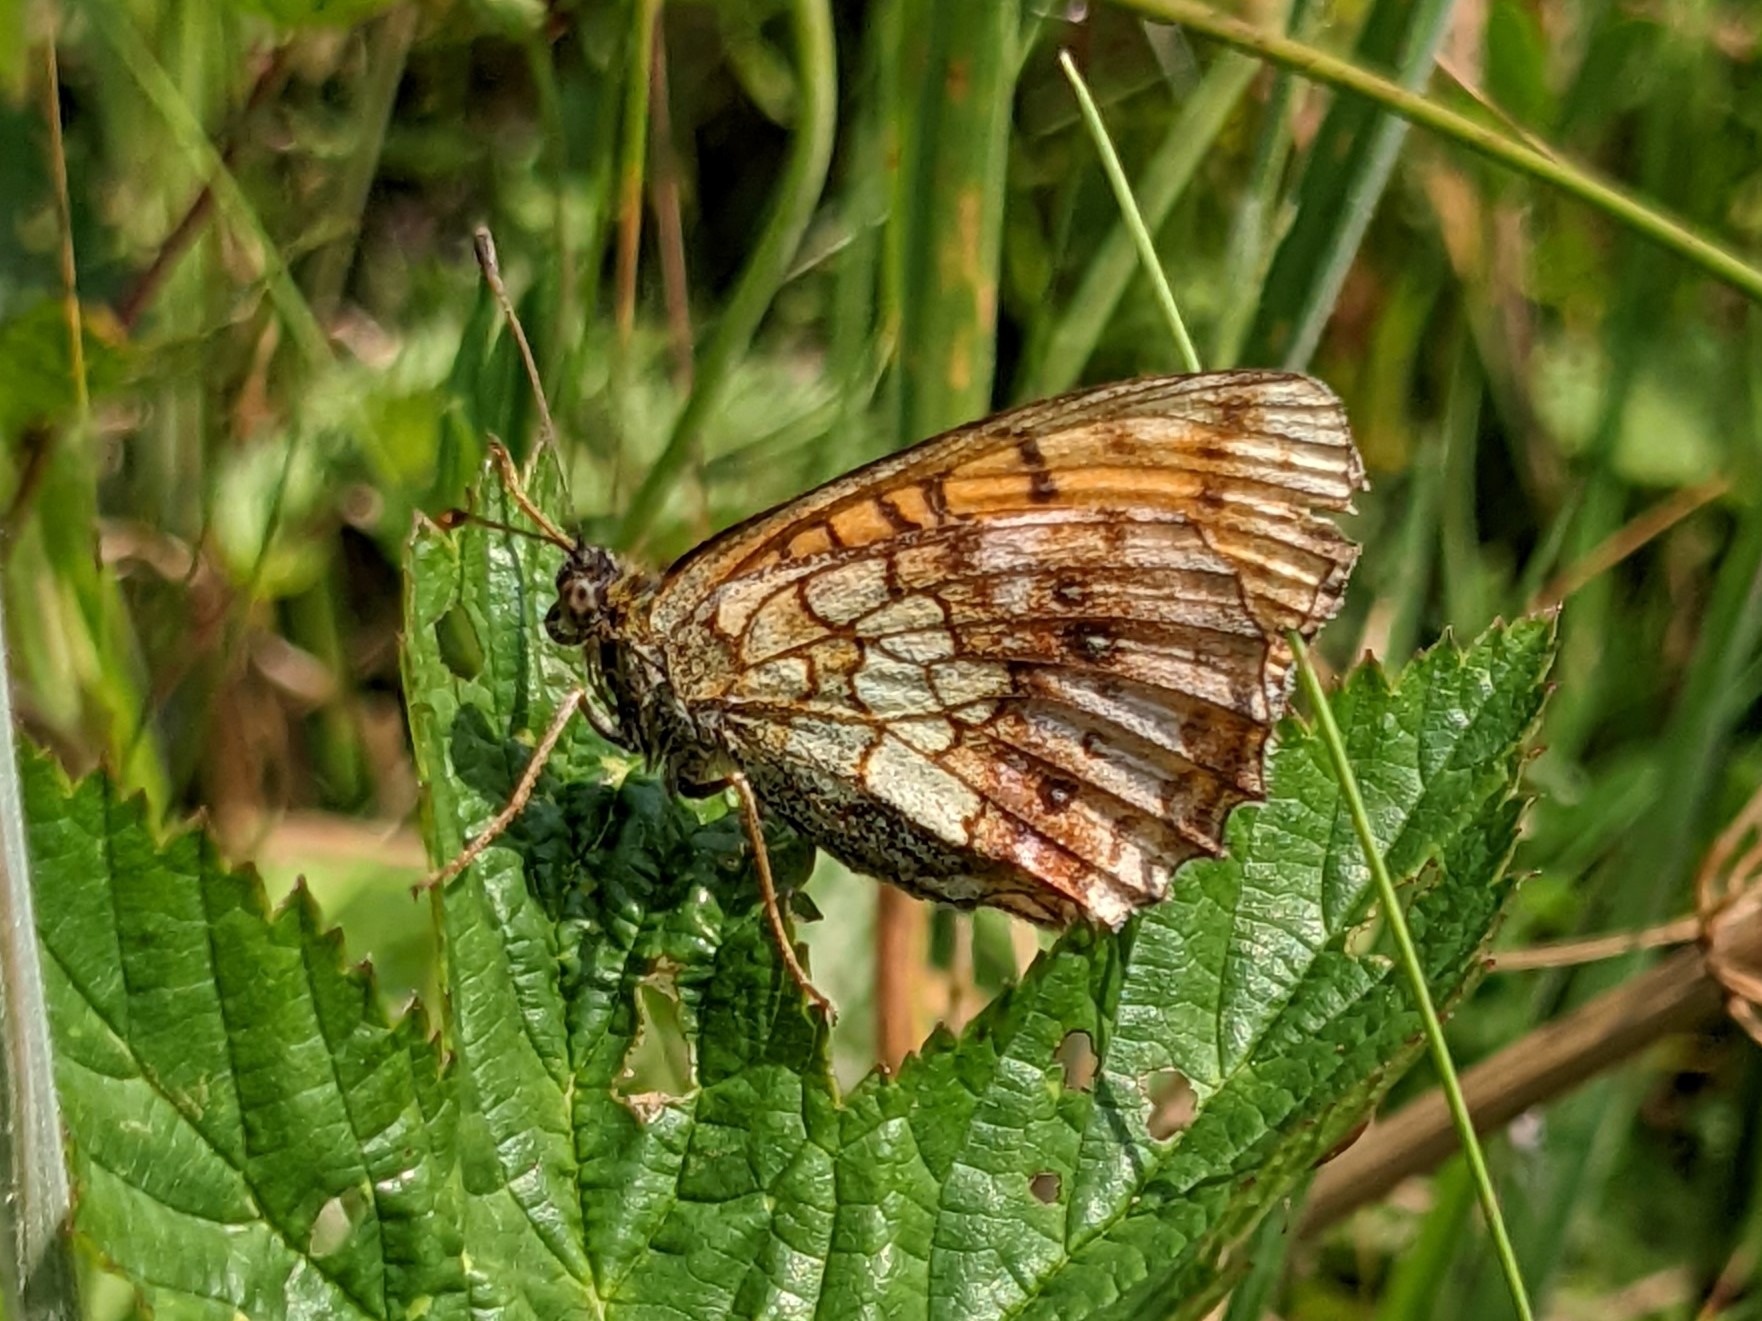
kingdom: Animalia
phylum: Arthropoda
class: Insecta
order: Lepidoptera
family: Nymphalidae
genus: Brenthis
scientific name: Brenthis ino
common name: Engperlemorsommerfugl
